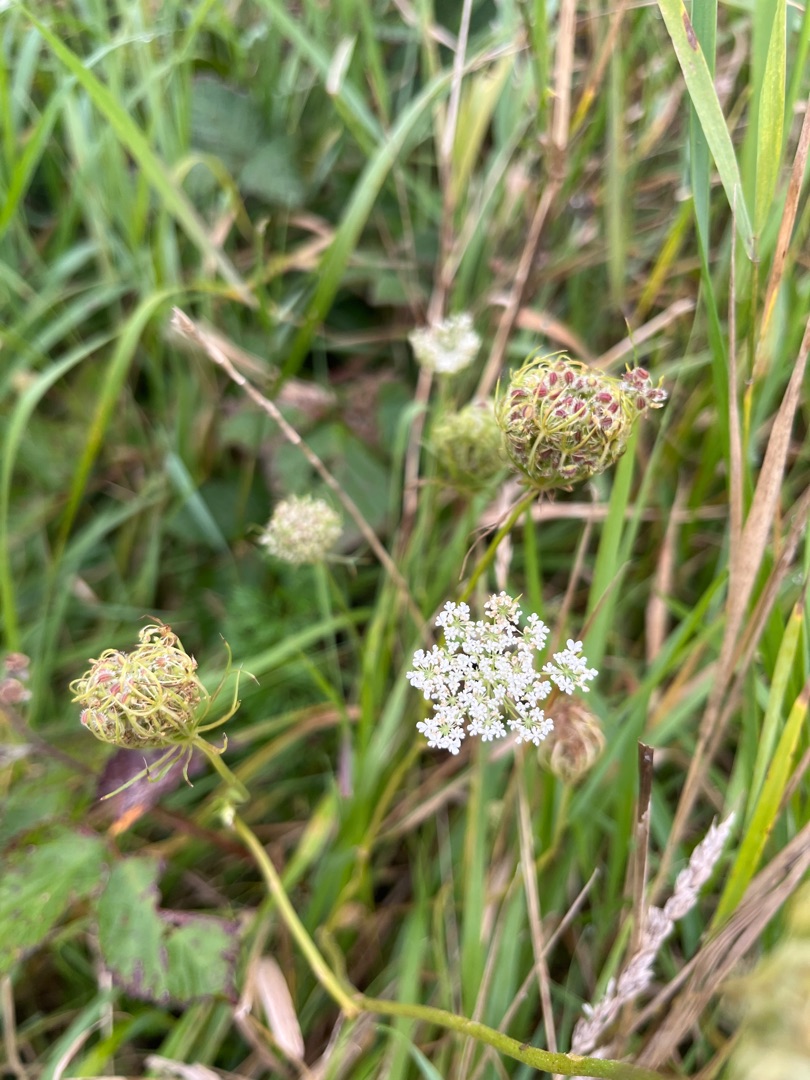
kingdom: Plantae
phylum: Tracheophyta
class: Magnoliopsida
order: Apiales
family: Apiaceae
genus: Daucus
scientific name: Daucus carota
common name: Gulerod
